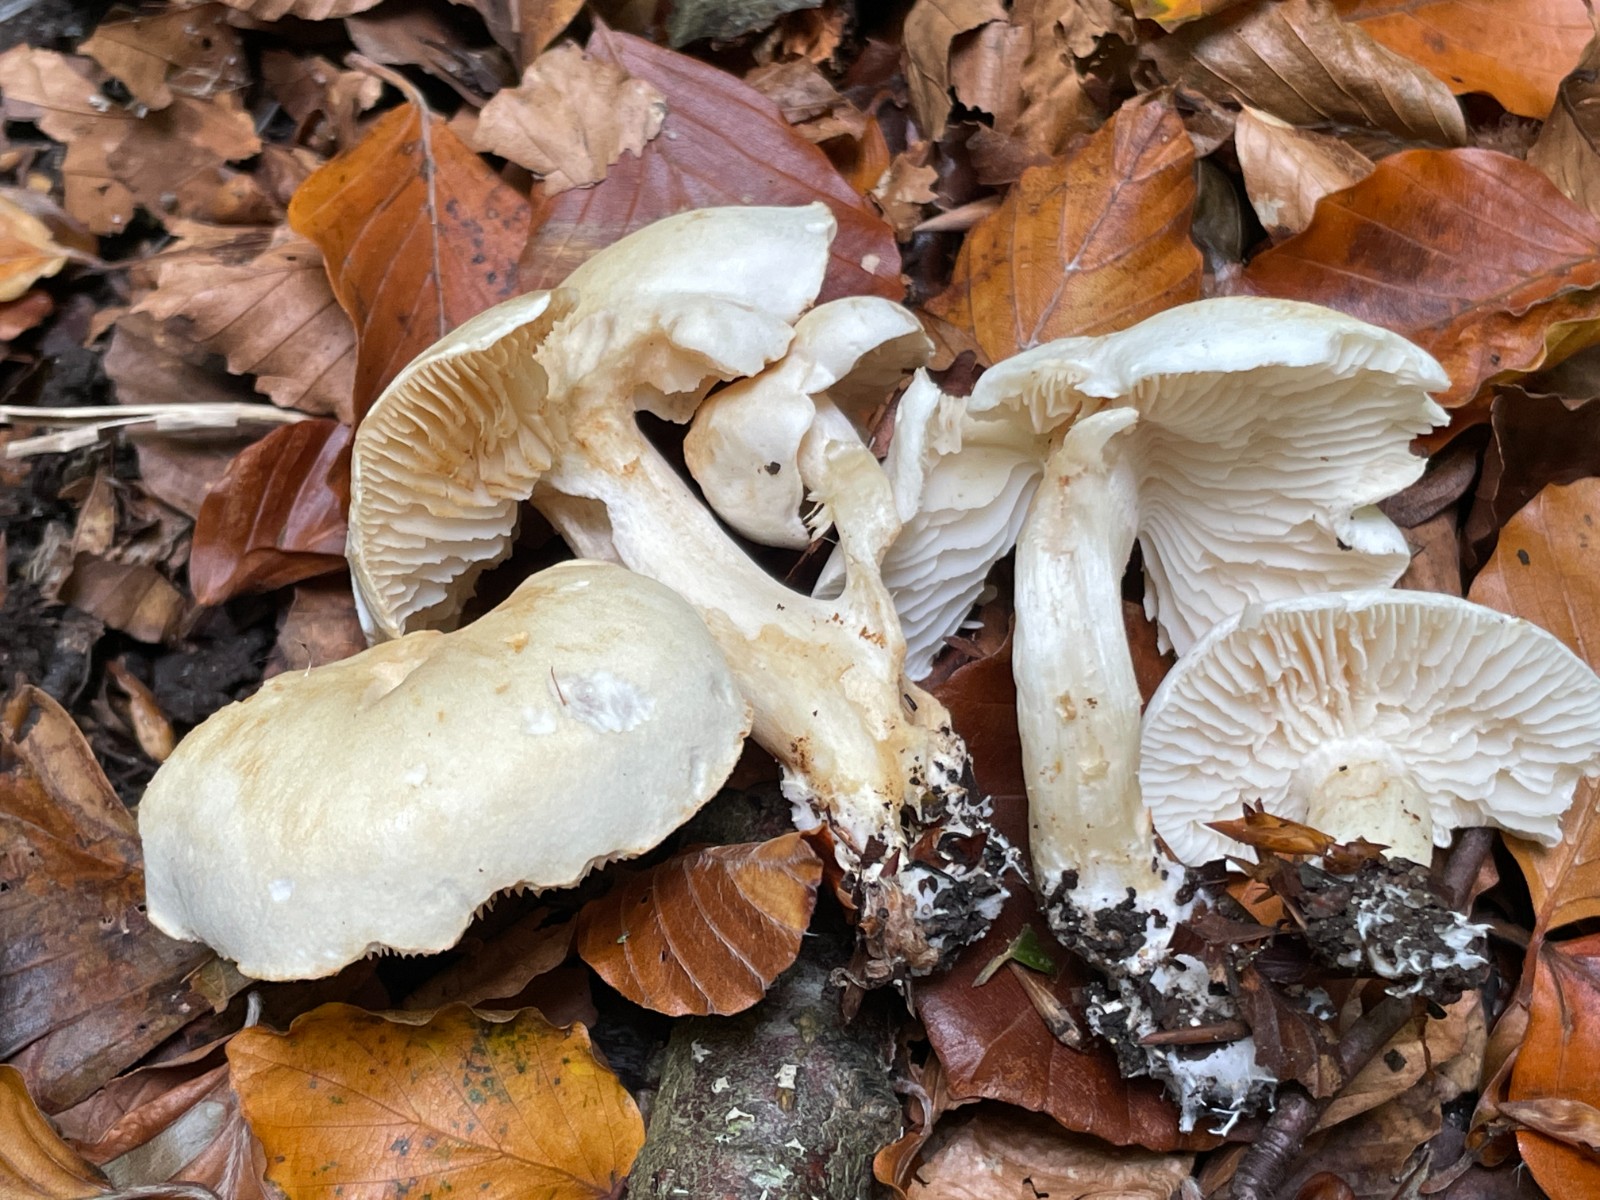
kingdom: Fungi
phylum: Basidiomycota
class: Agaricomycetes
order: Agaricales
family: Tricholomataceae
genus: Tricholoma
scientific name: Tricholoma lascivum
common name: stinkende ridderhat
